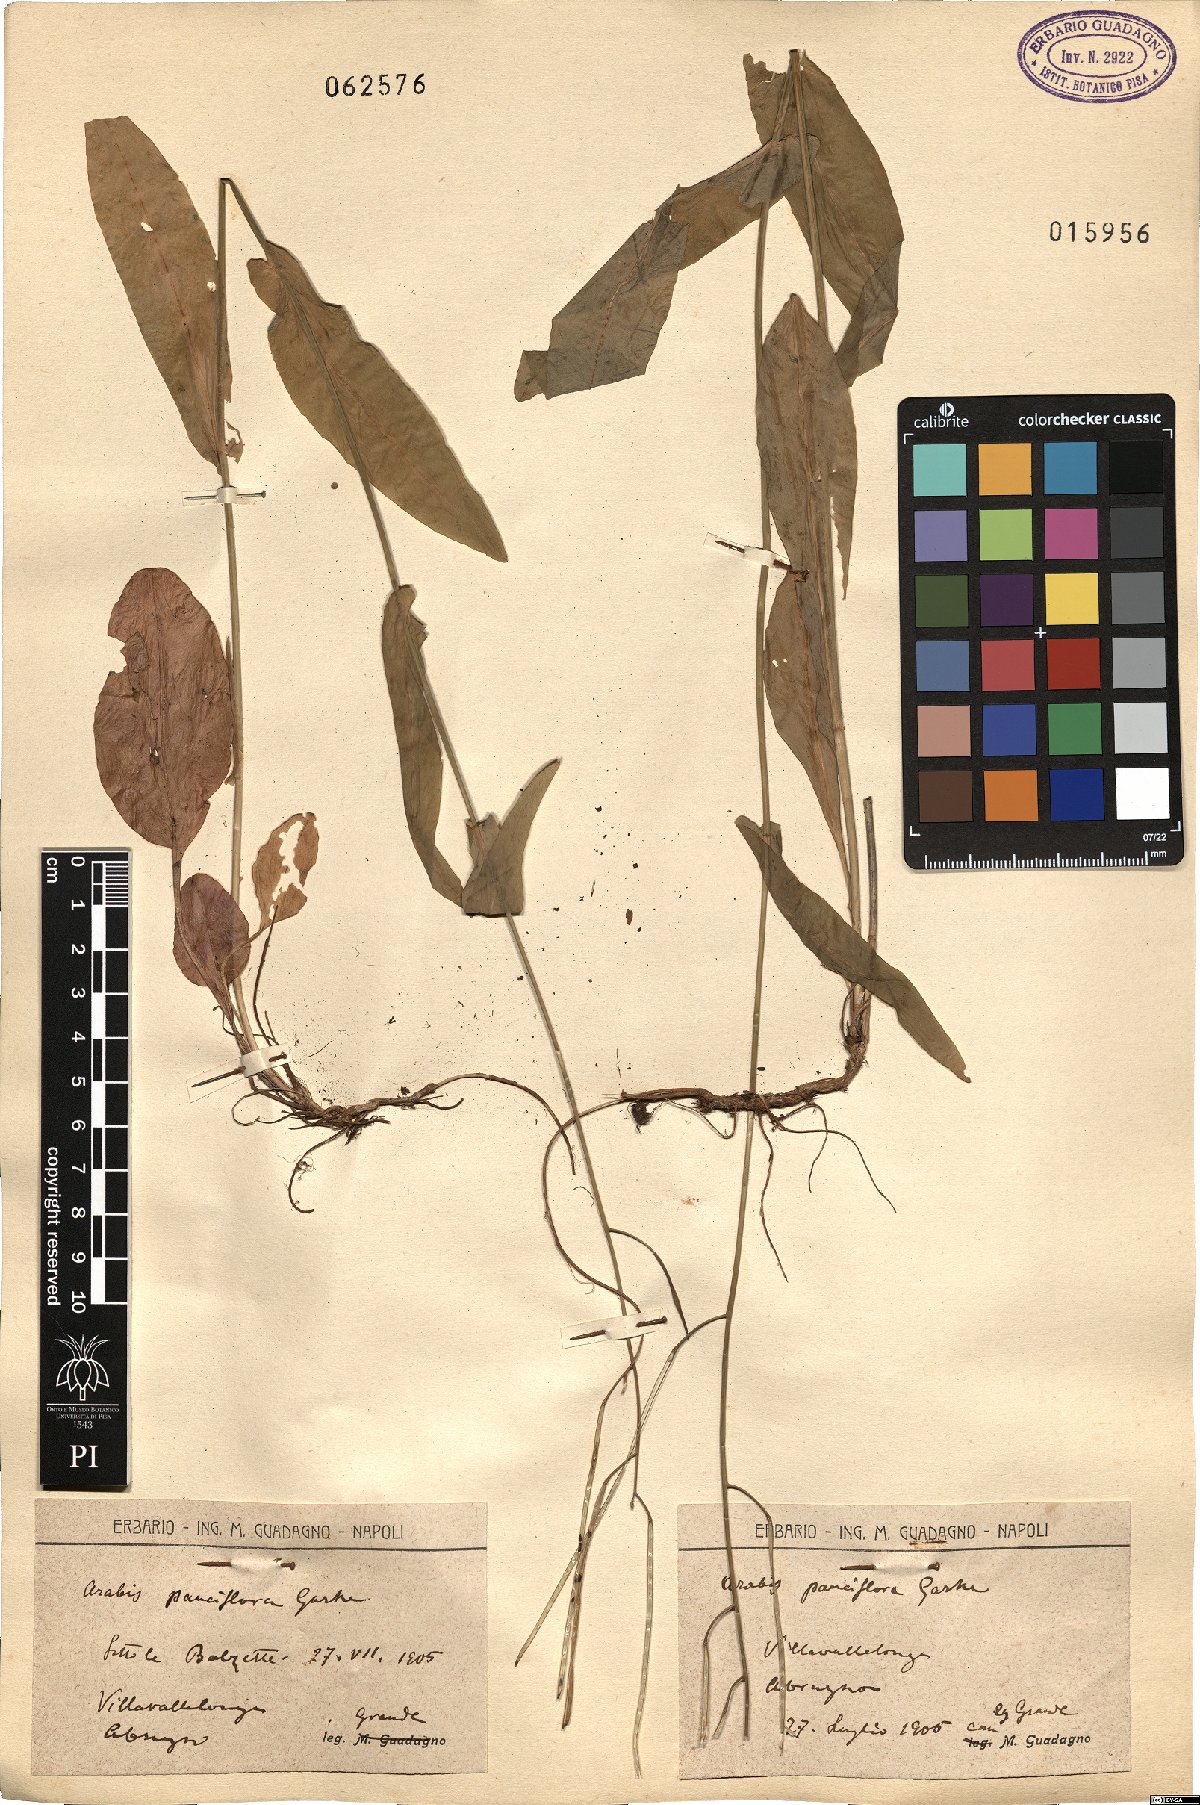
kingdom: Plantae
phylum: Tracheophyta
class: Magnoliopsida
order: Brassicales
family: Brassicaceae
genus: Fourraea
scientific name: Fourraea alpina
